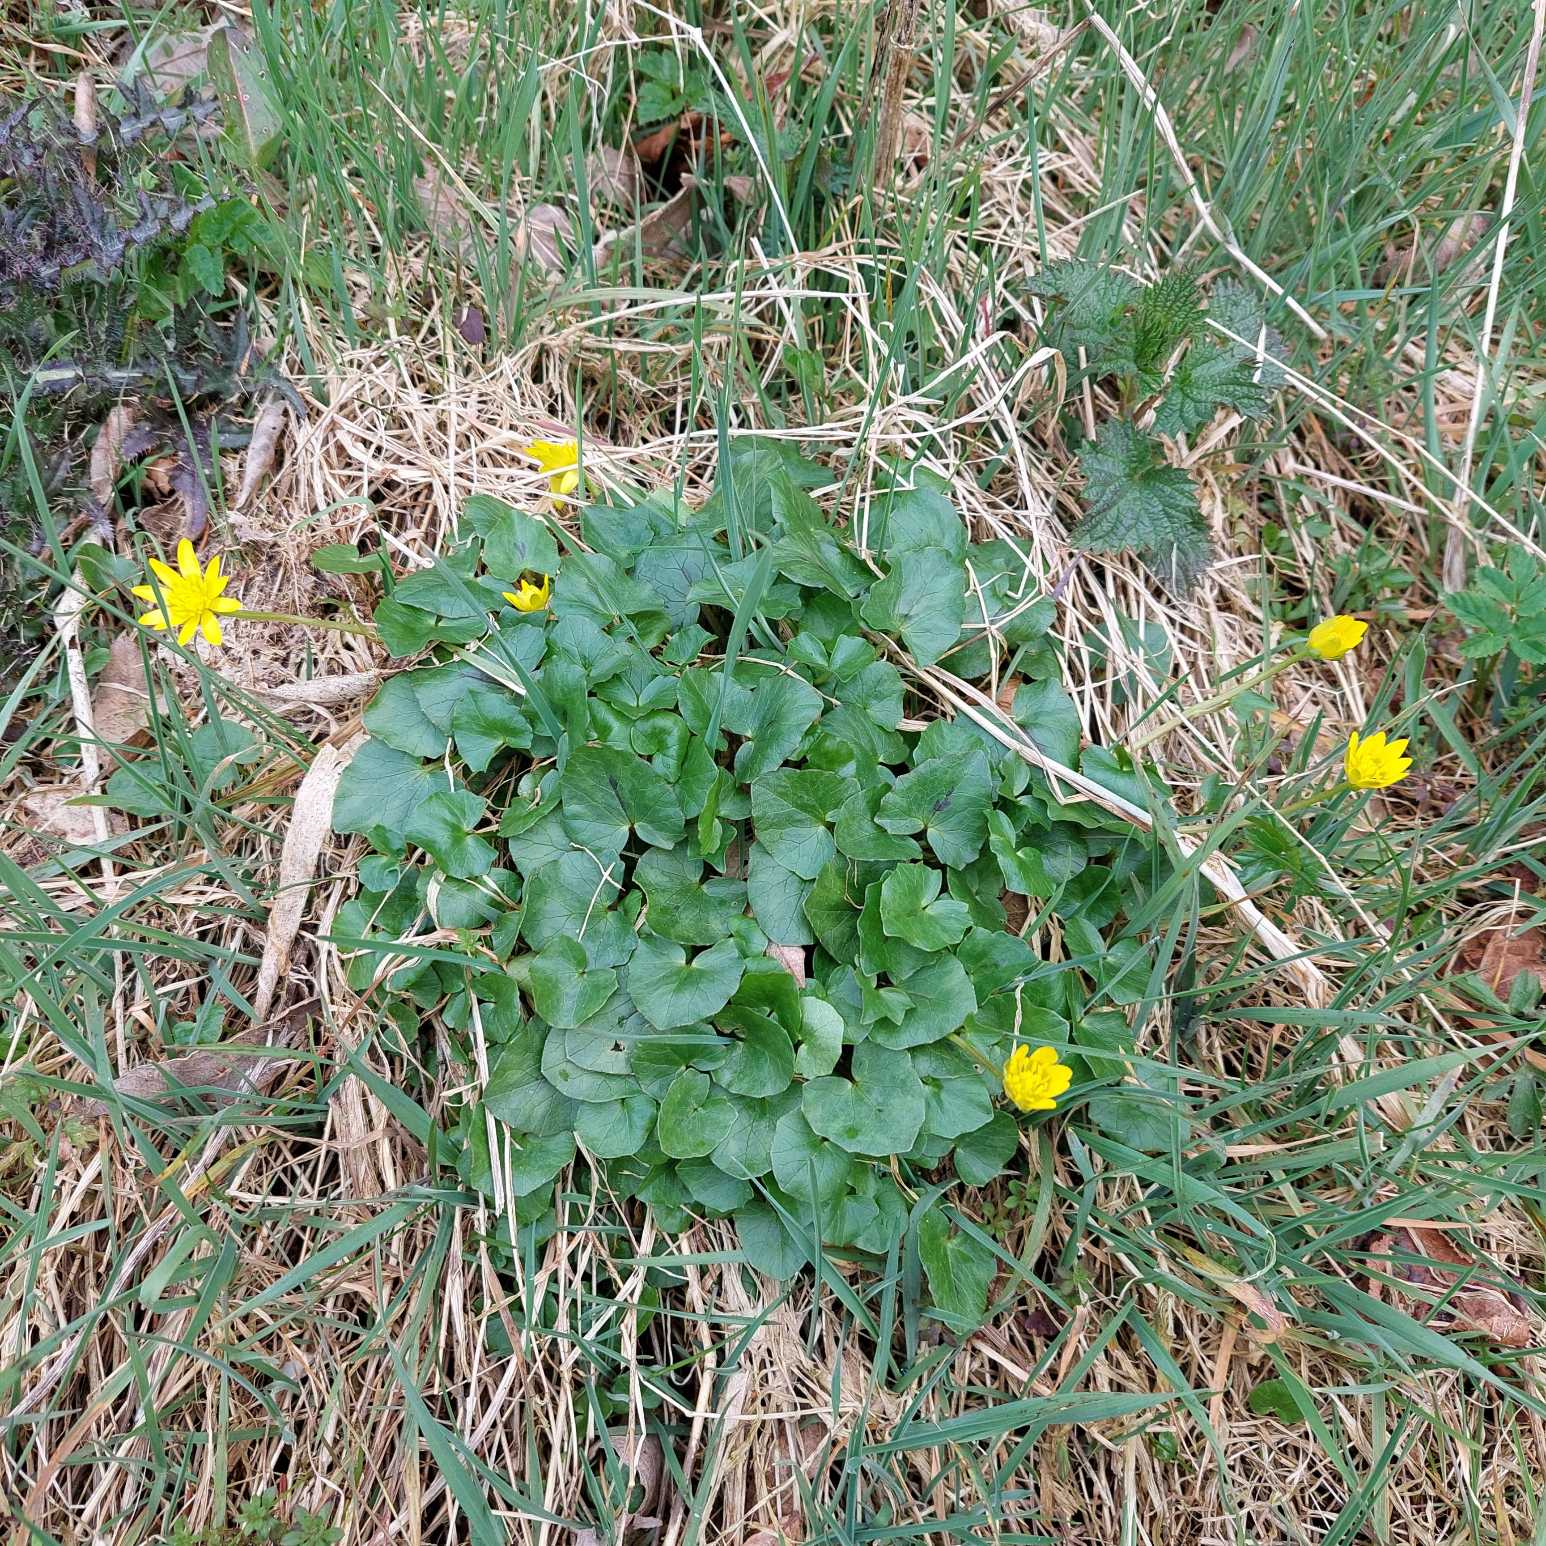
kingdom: Plantae
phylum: Tracheophyta
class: Magnoliopsida
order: Ranunculales
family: Ranunculaceae
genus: Ficaria
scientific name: Ficaria verna
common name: Vorterod
